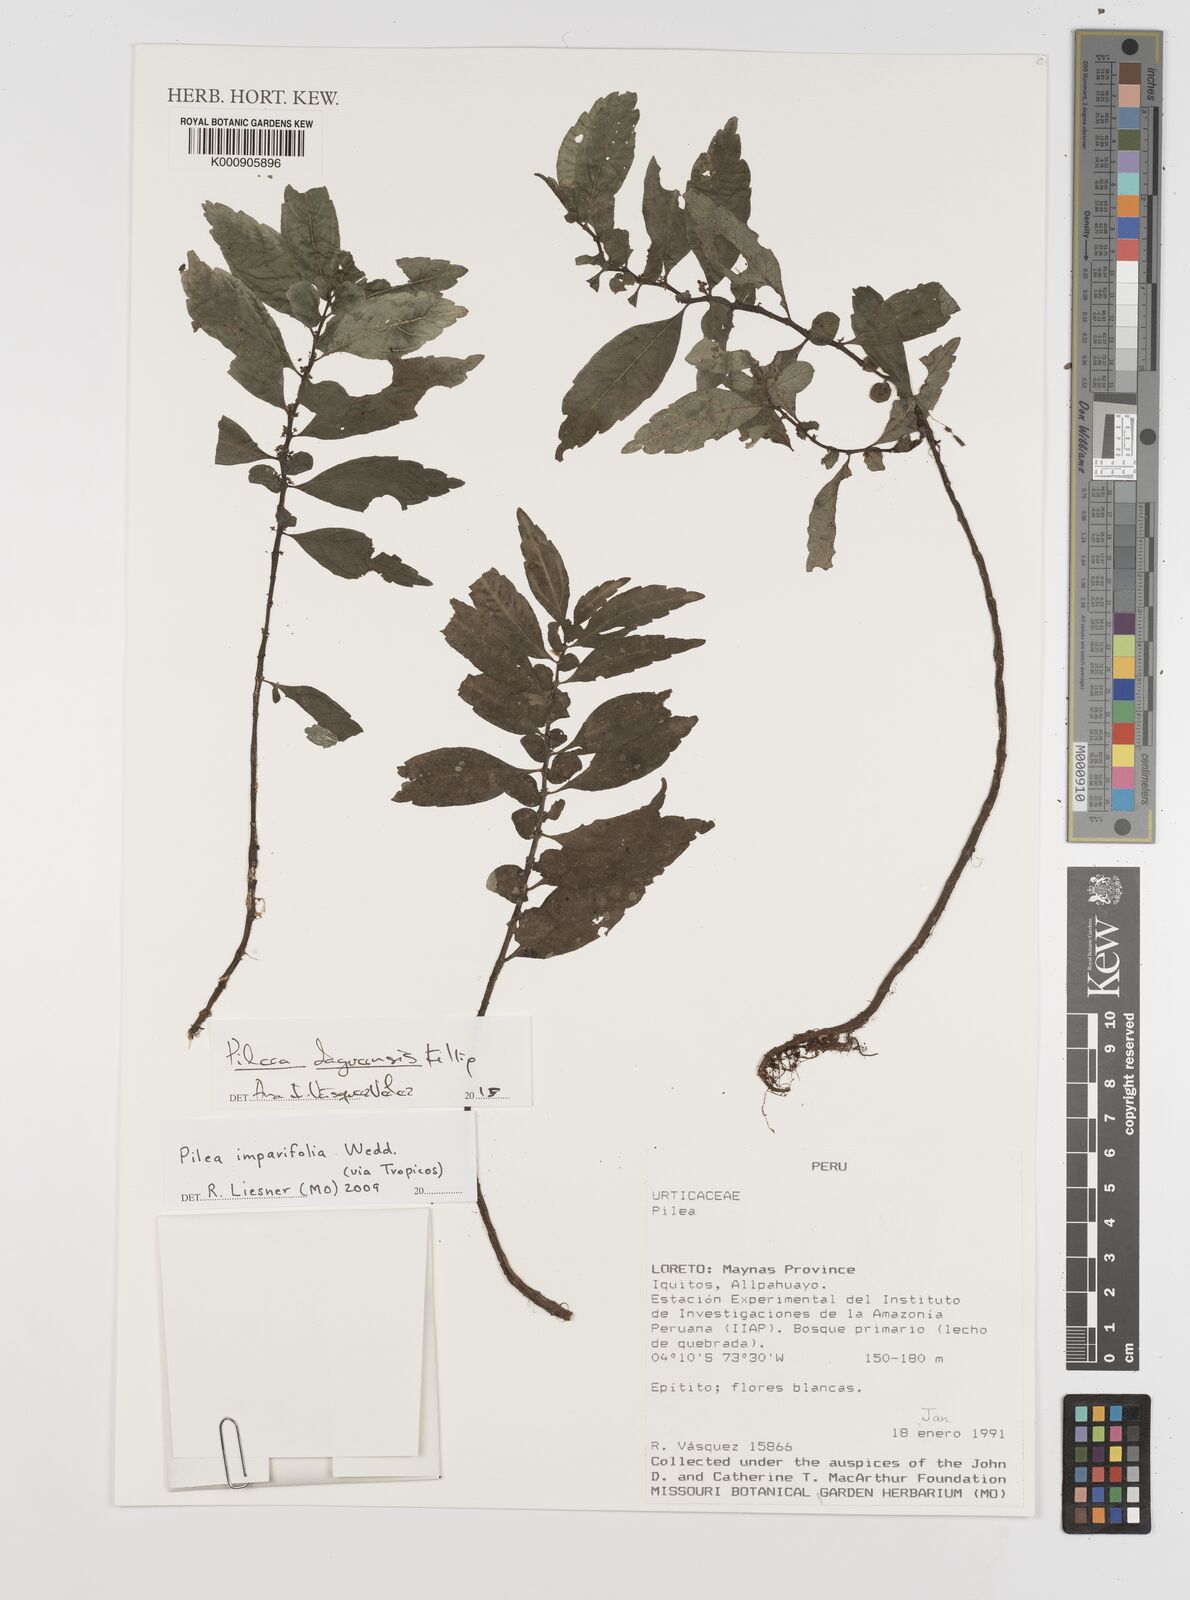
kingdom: Plantae
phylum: Tracheophyta
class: Magnoliopsida
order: Rosales
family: Urticaceae
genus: Pilea
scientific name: Pilea daguensis
